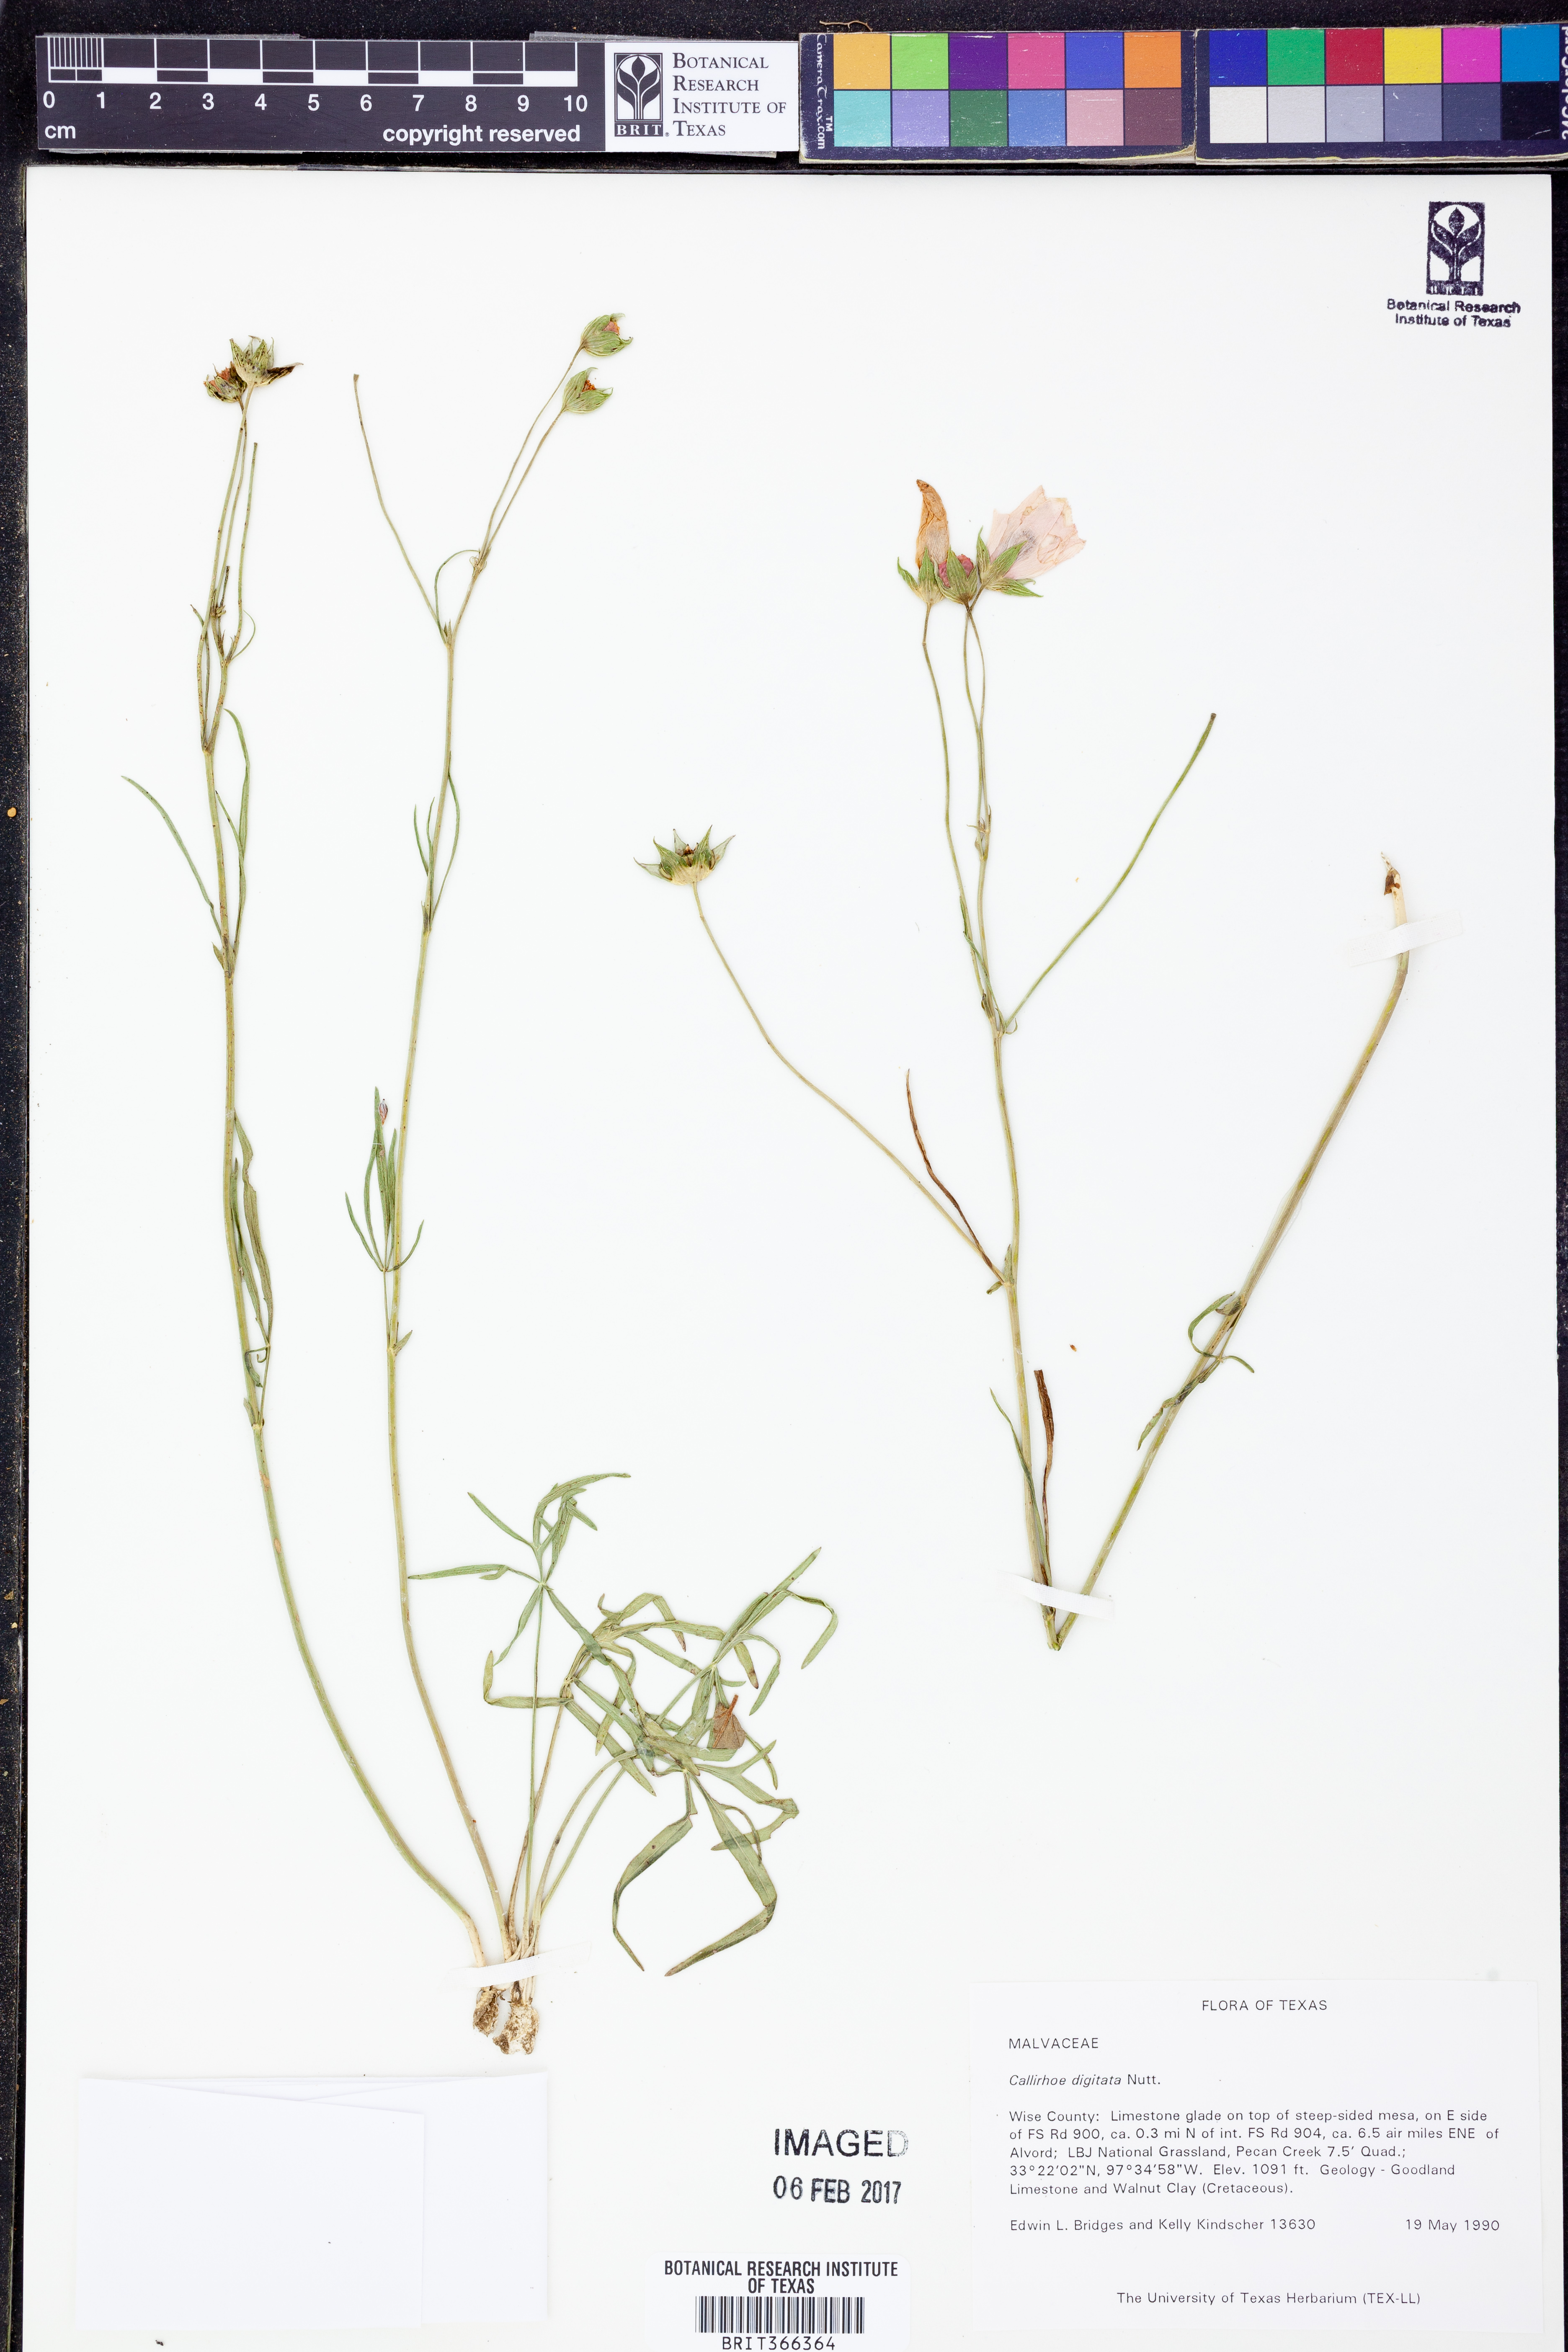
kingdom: Plantae
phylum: Tracheophyta
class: Magnoliopsida
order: Malvales
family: Malvaceae
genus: Callirhoe
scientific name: Callirhoe digitata
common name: Finger poppy-mallow
